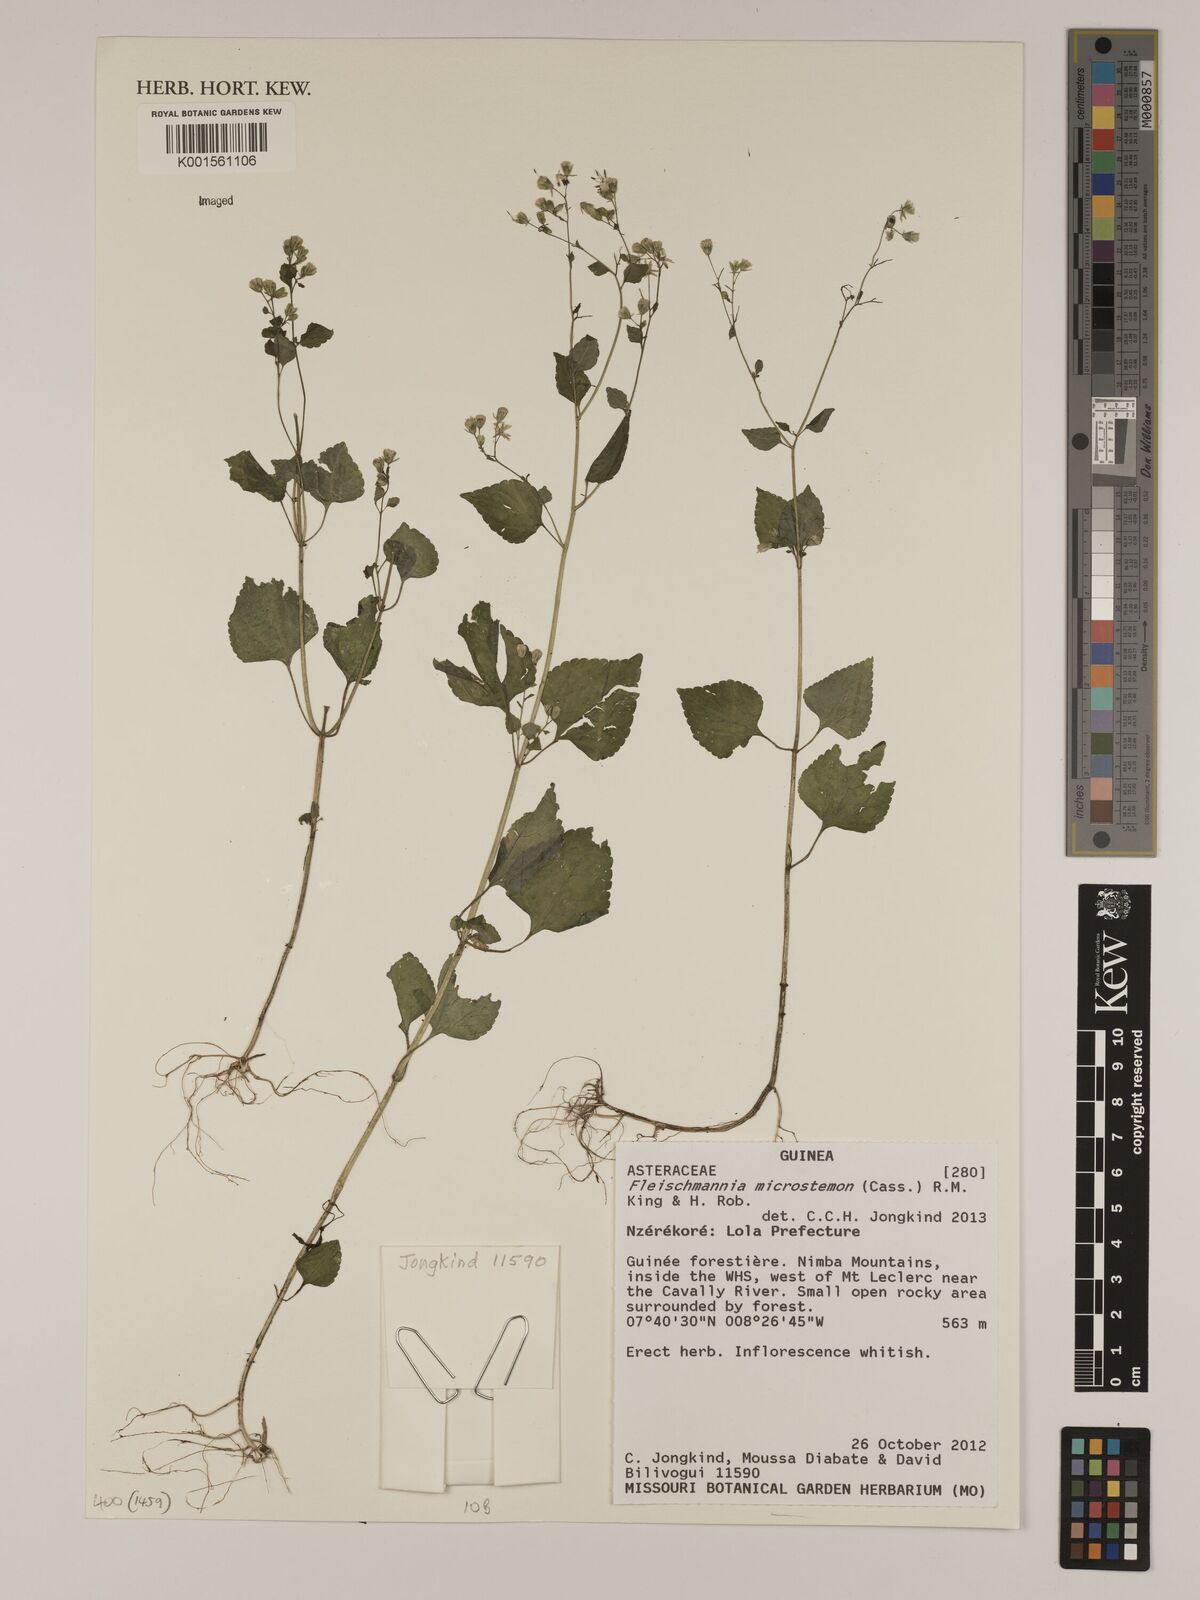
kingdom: Plantae
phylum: Tracheophyta
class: Magnoliopsida
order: Asterales
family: Asteraceae
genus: Fleischmannia
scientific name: Fleischmannia microstemon
